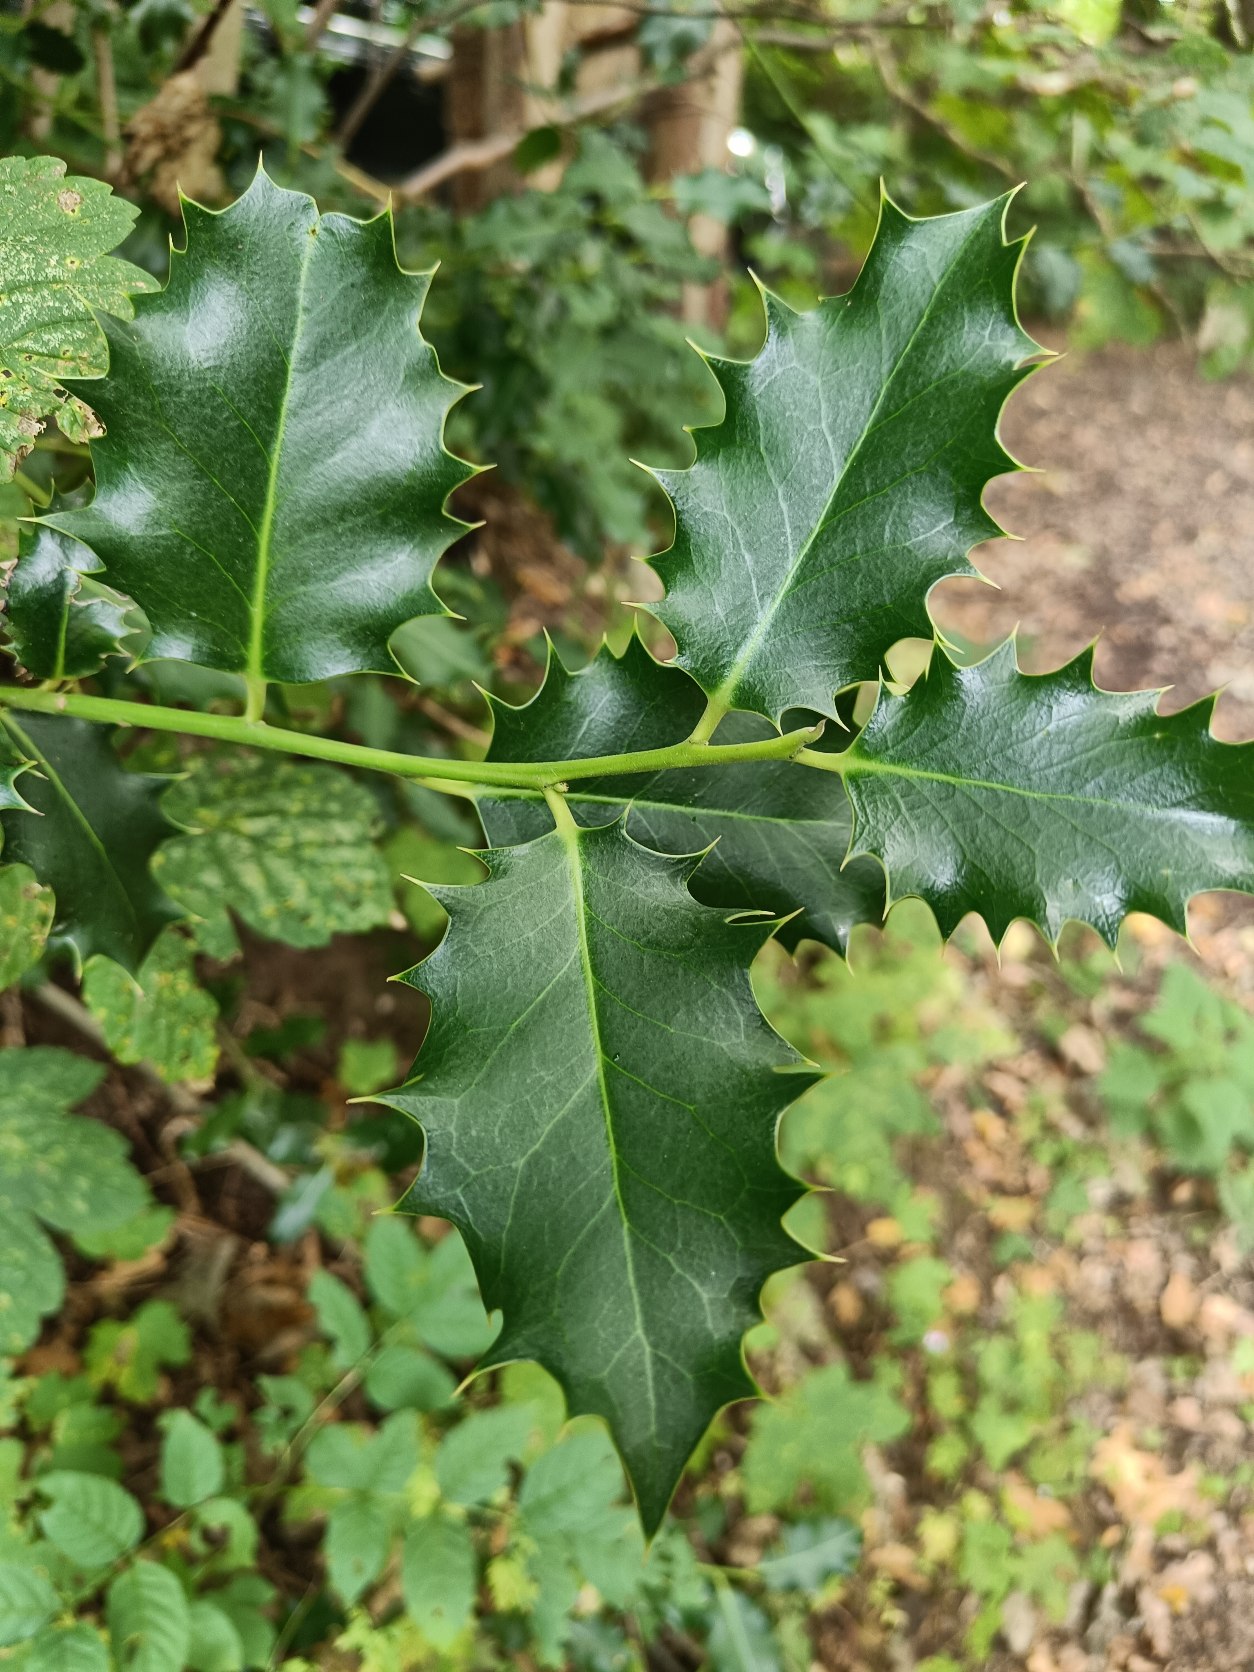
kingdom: Plantae
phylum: Tracheophyta
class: Magnoliopsida
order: Aquifoliales
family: Aquifoliaceae
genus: Ilex
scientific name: Ilex aquifolium
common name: Kristtorn
